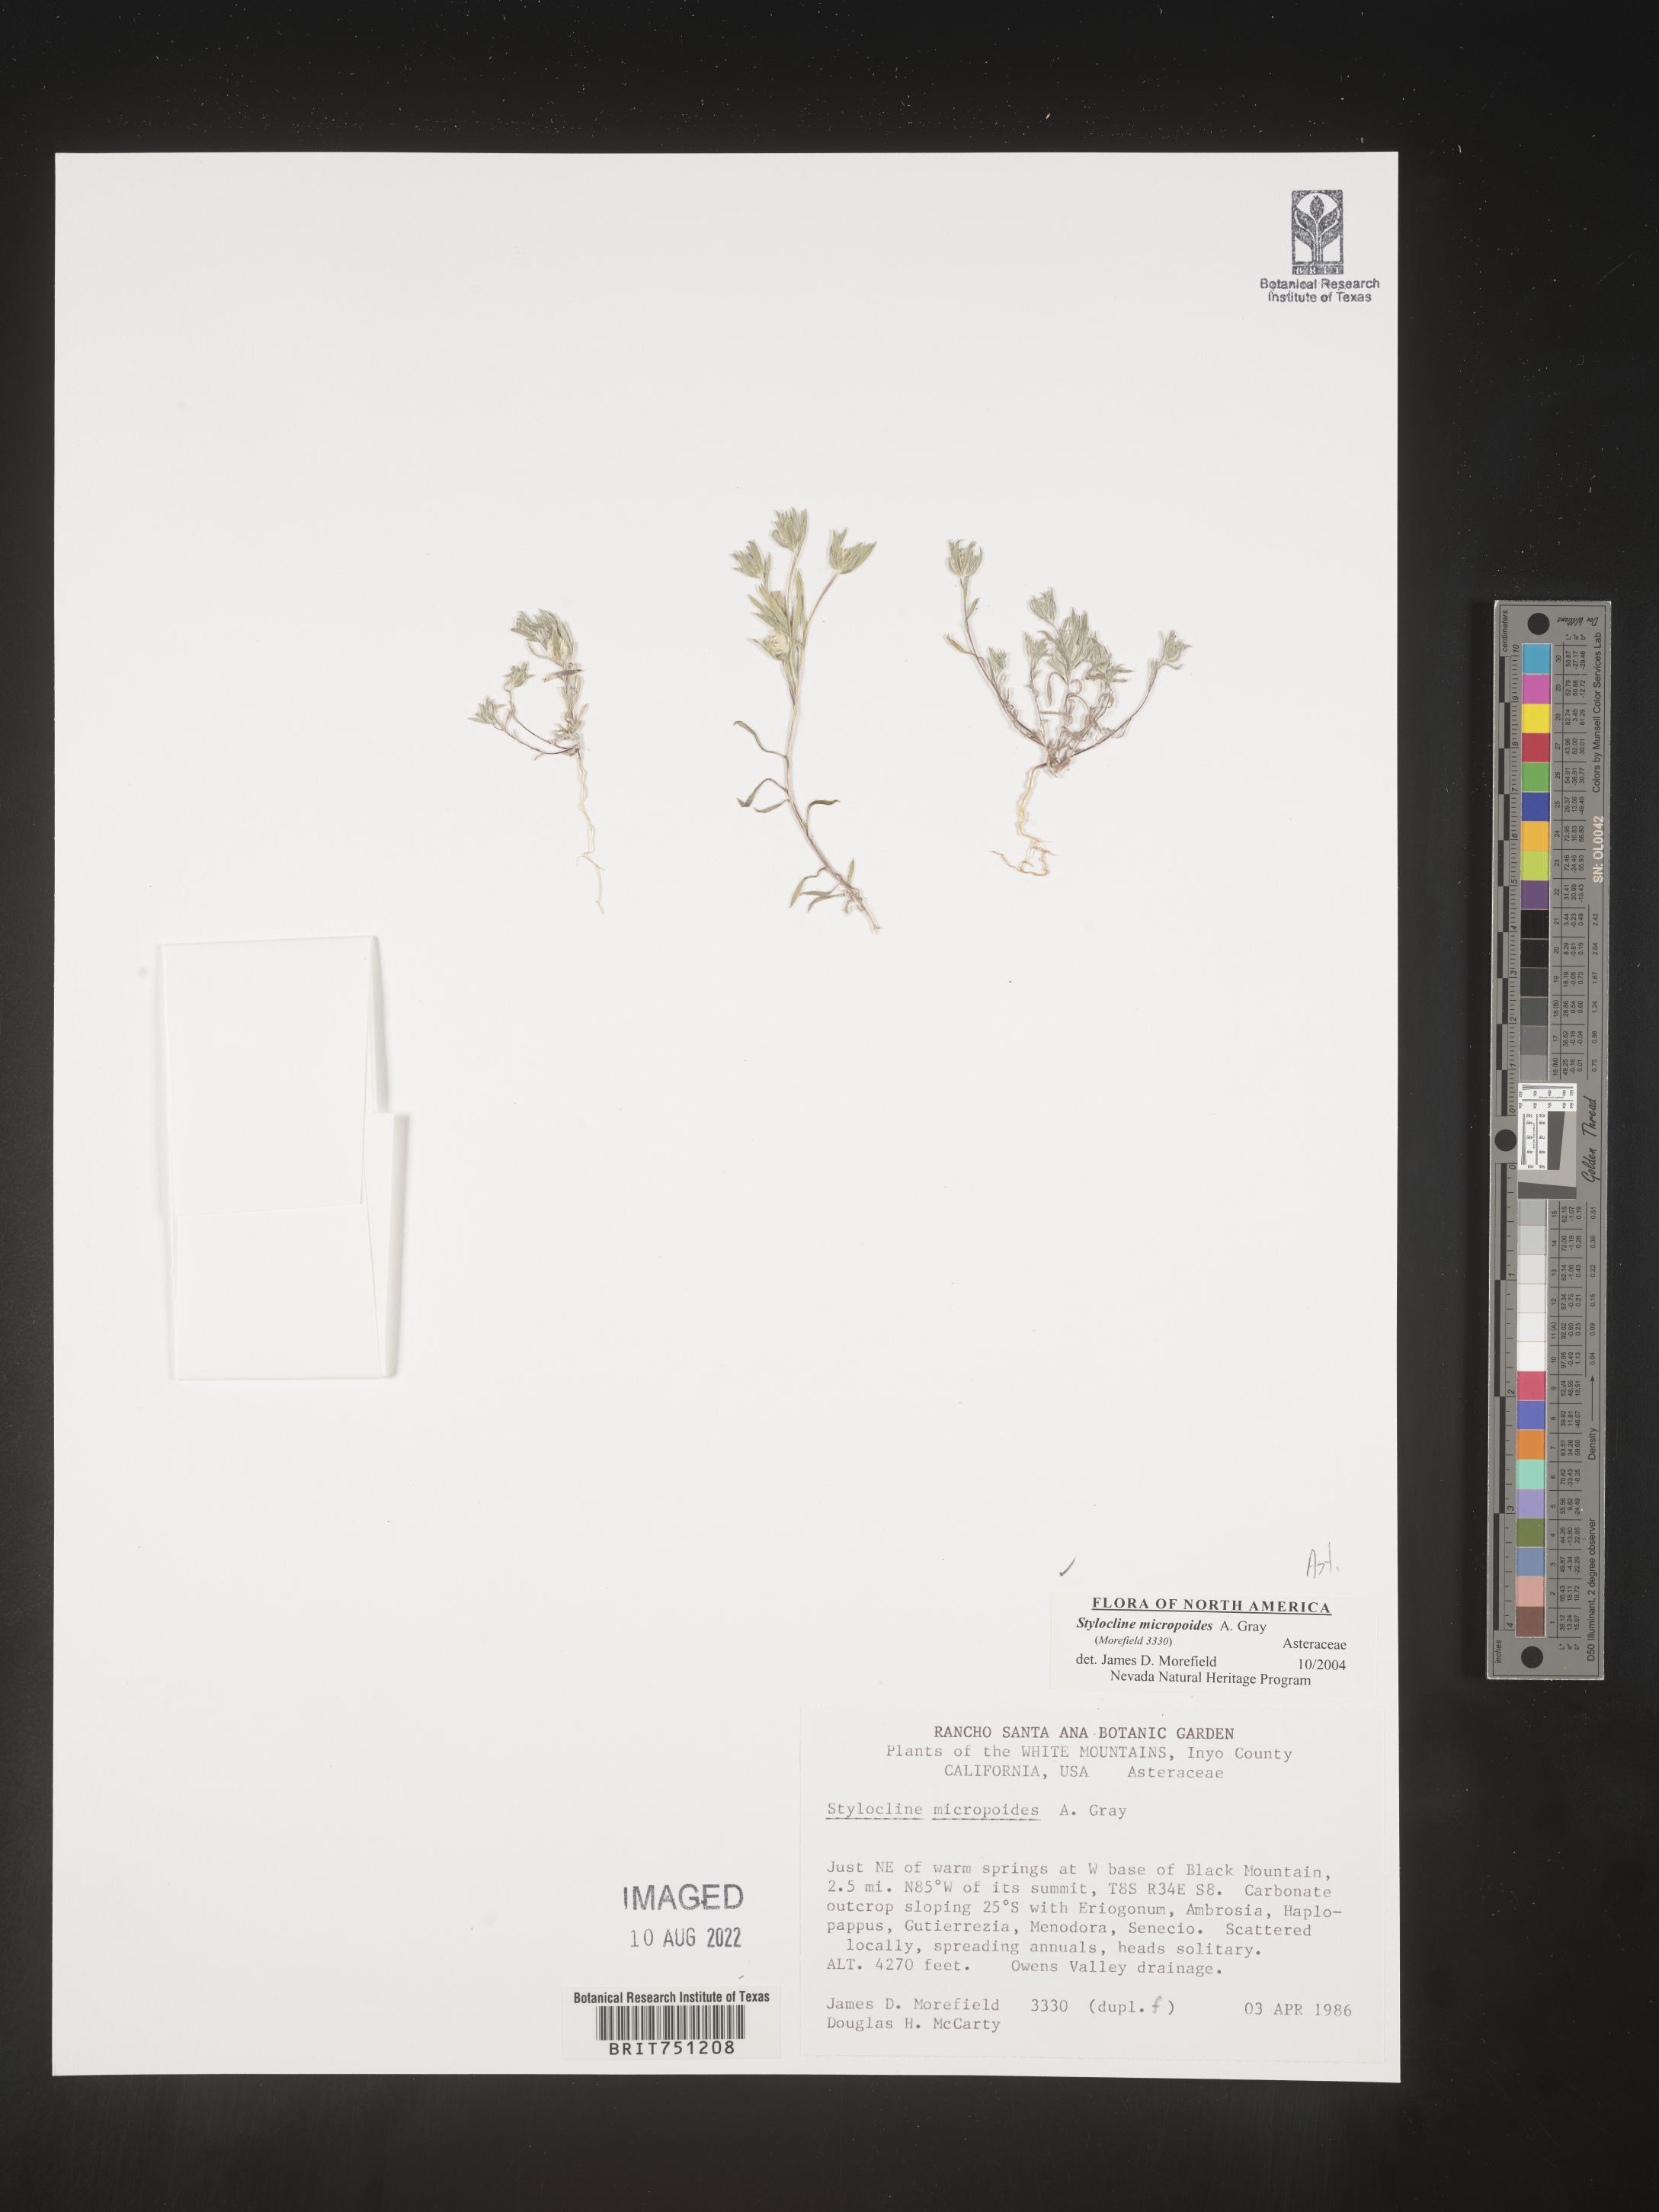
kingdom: Plantae
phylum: Tracheophyta
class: Magnoliopsida
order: Asterales
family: Asteraceae
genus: Stylocline
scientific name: Stylocline
